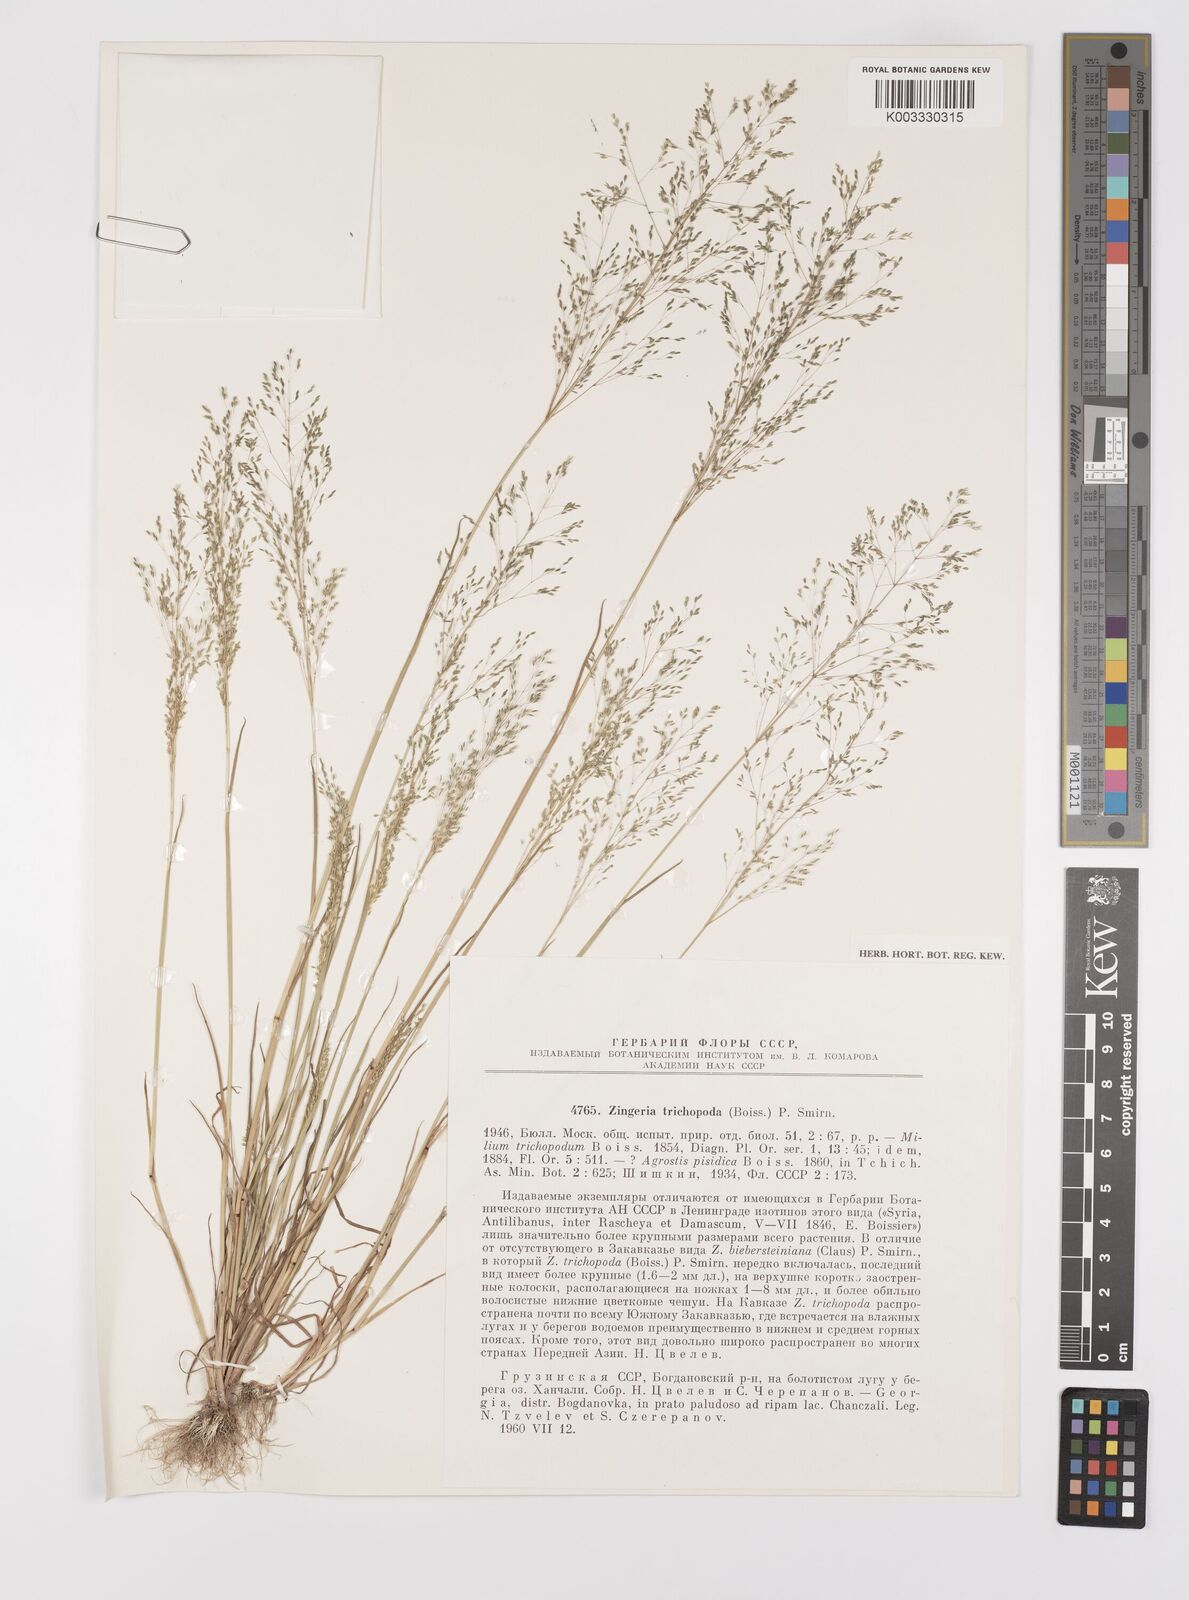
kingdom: Plantae
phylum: Tracheophyta
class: Liliopsida
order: Poales
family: Poaceae
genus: Colpodium
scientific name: Colpodium trichopodum
